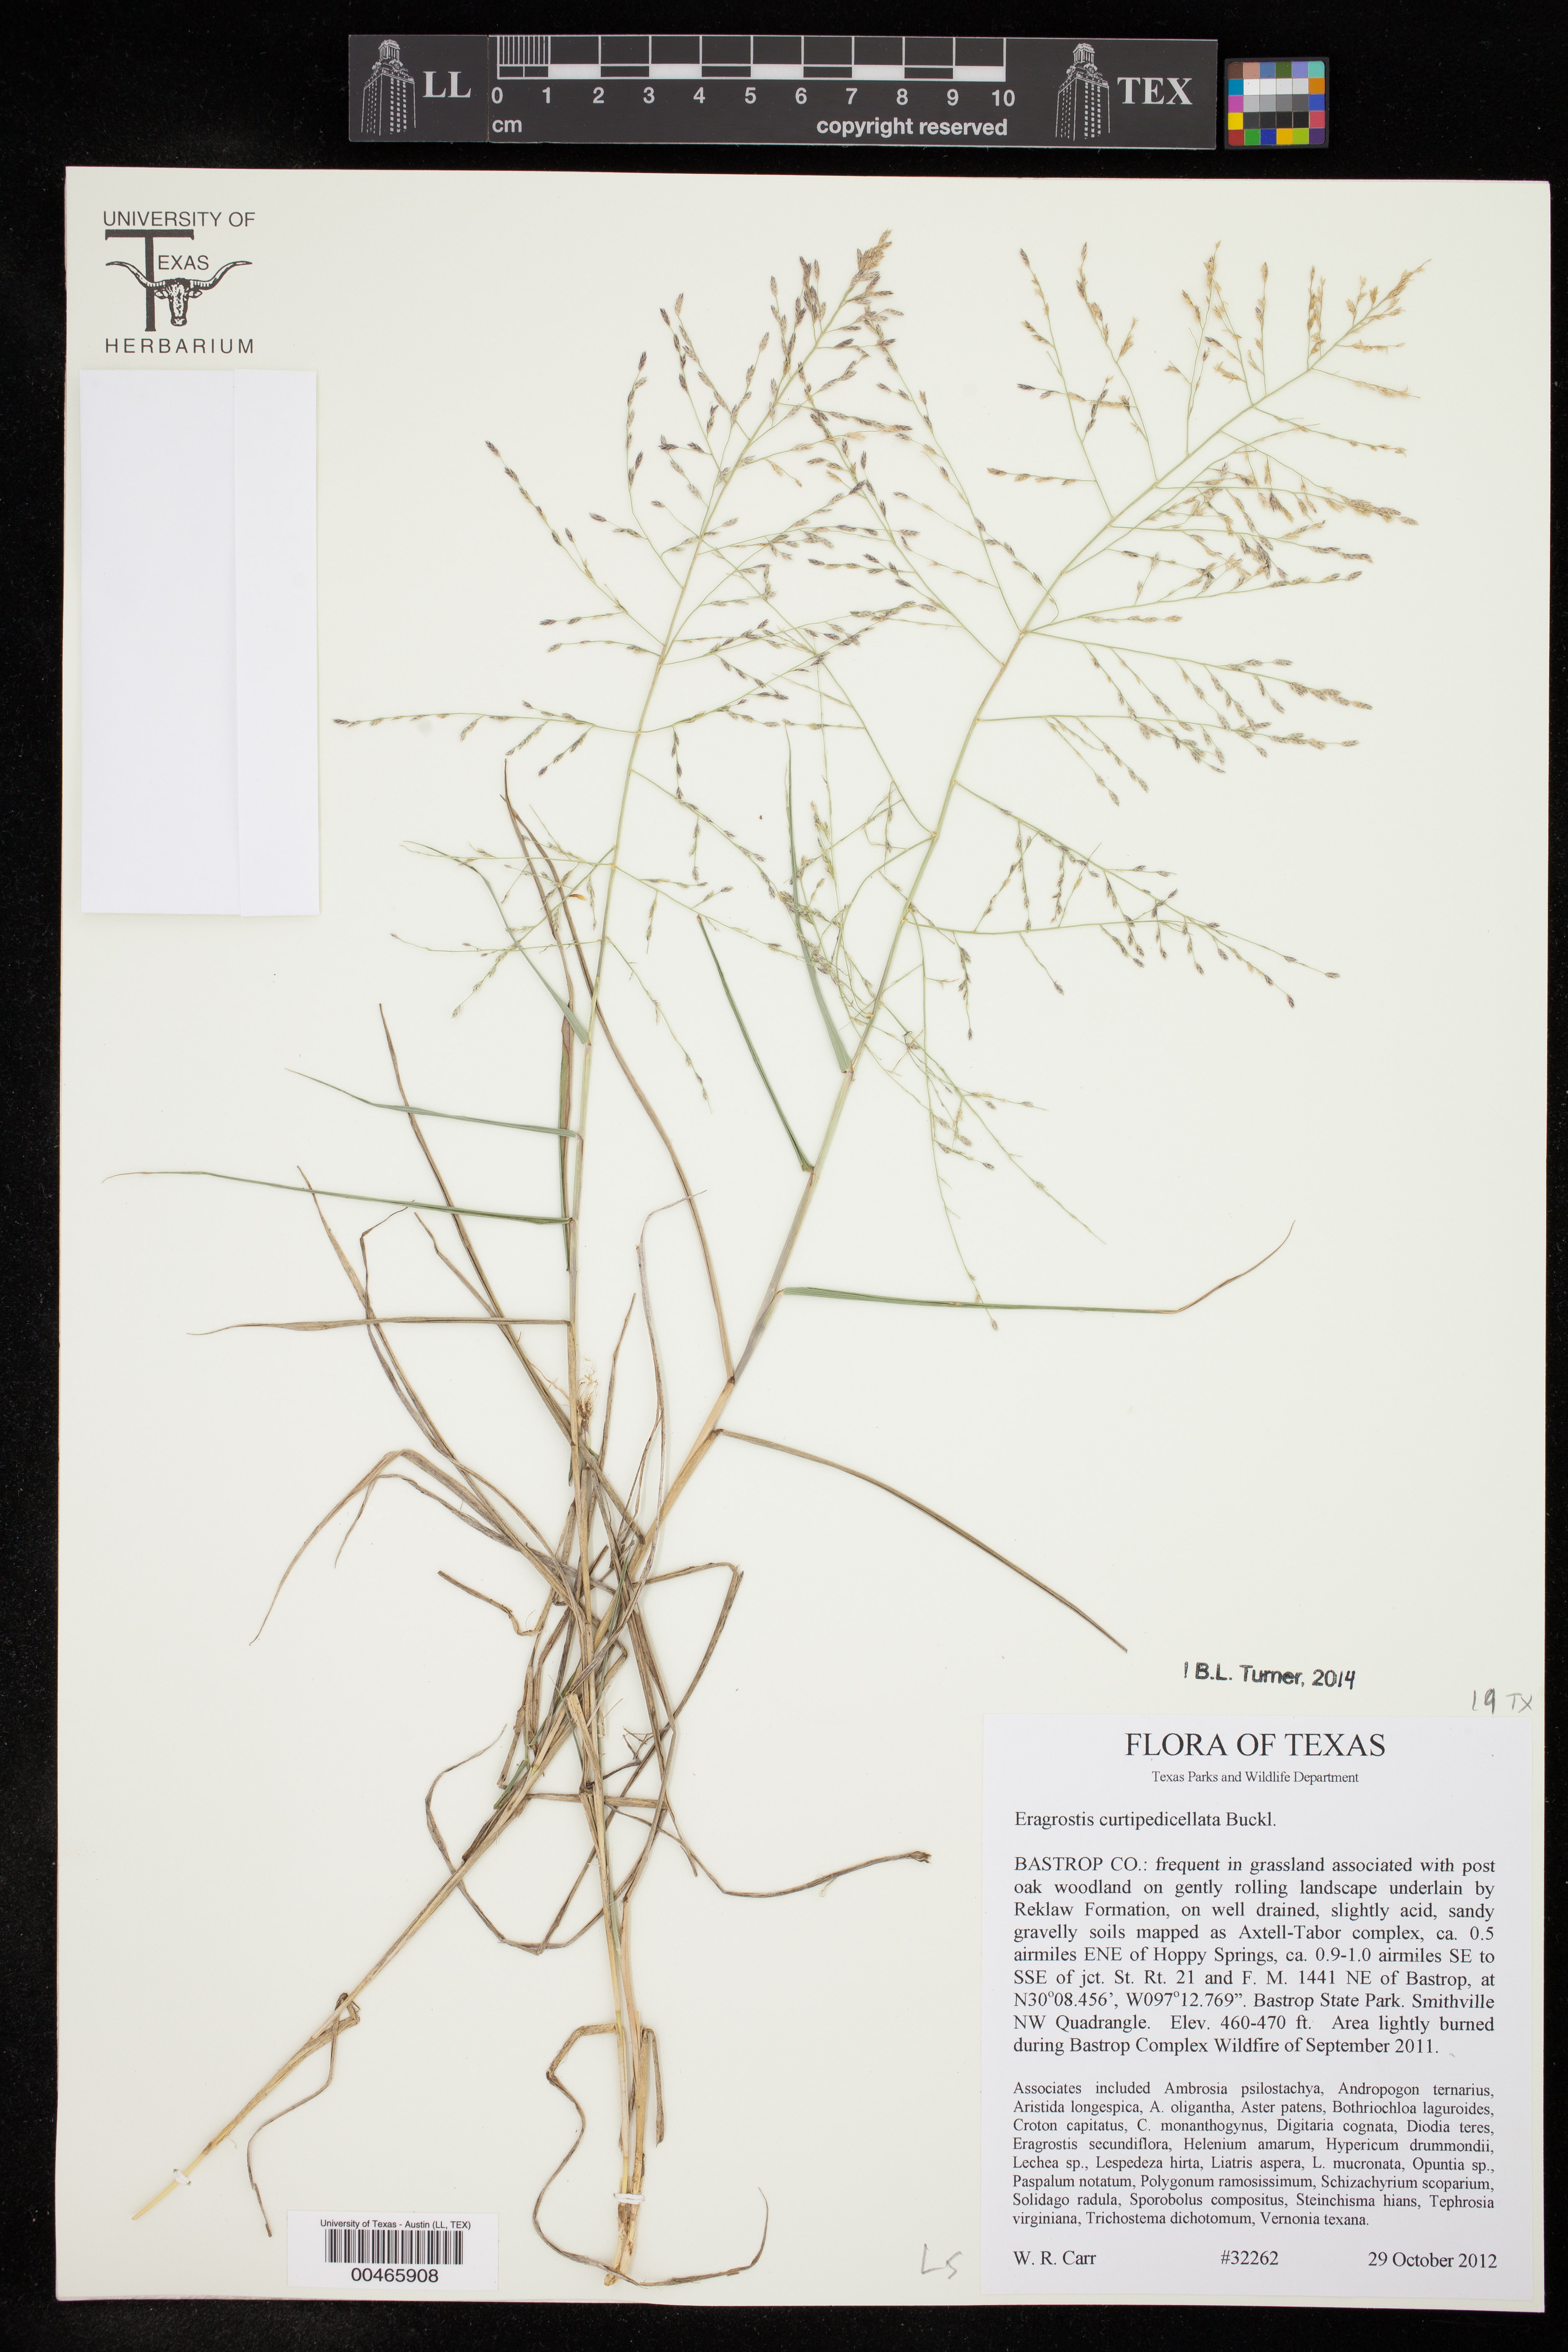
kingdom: Plantae
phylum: Tracheophyta
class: Liliopsida
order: Poales
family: Poaceae
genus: Eragrostis
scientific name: Eragrostis curtipedicellata
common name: Gummy love grass
